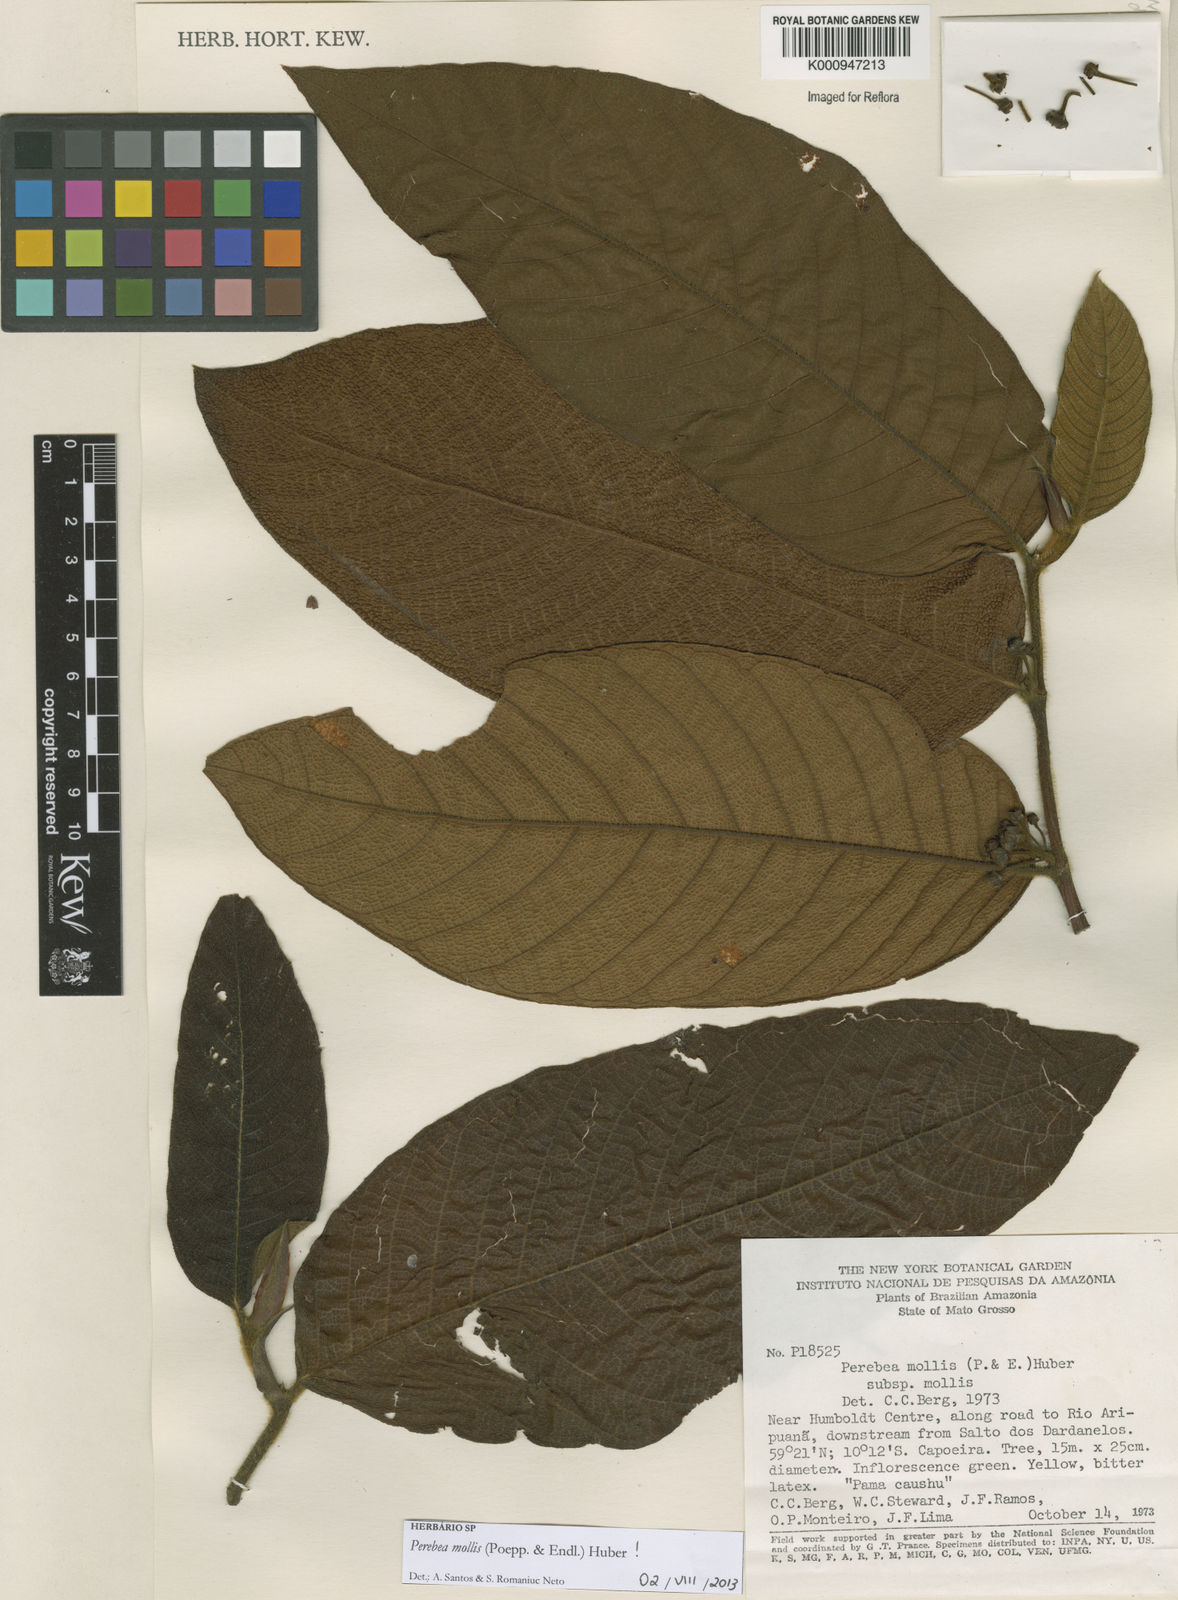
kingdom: Plantae
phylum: Tracheophyta
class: Magnoliopsida
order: Rosales
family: Moraceae
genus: Perebea
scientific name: Perebea mollis
